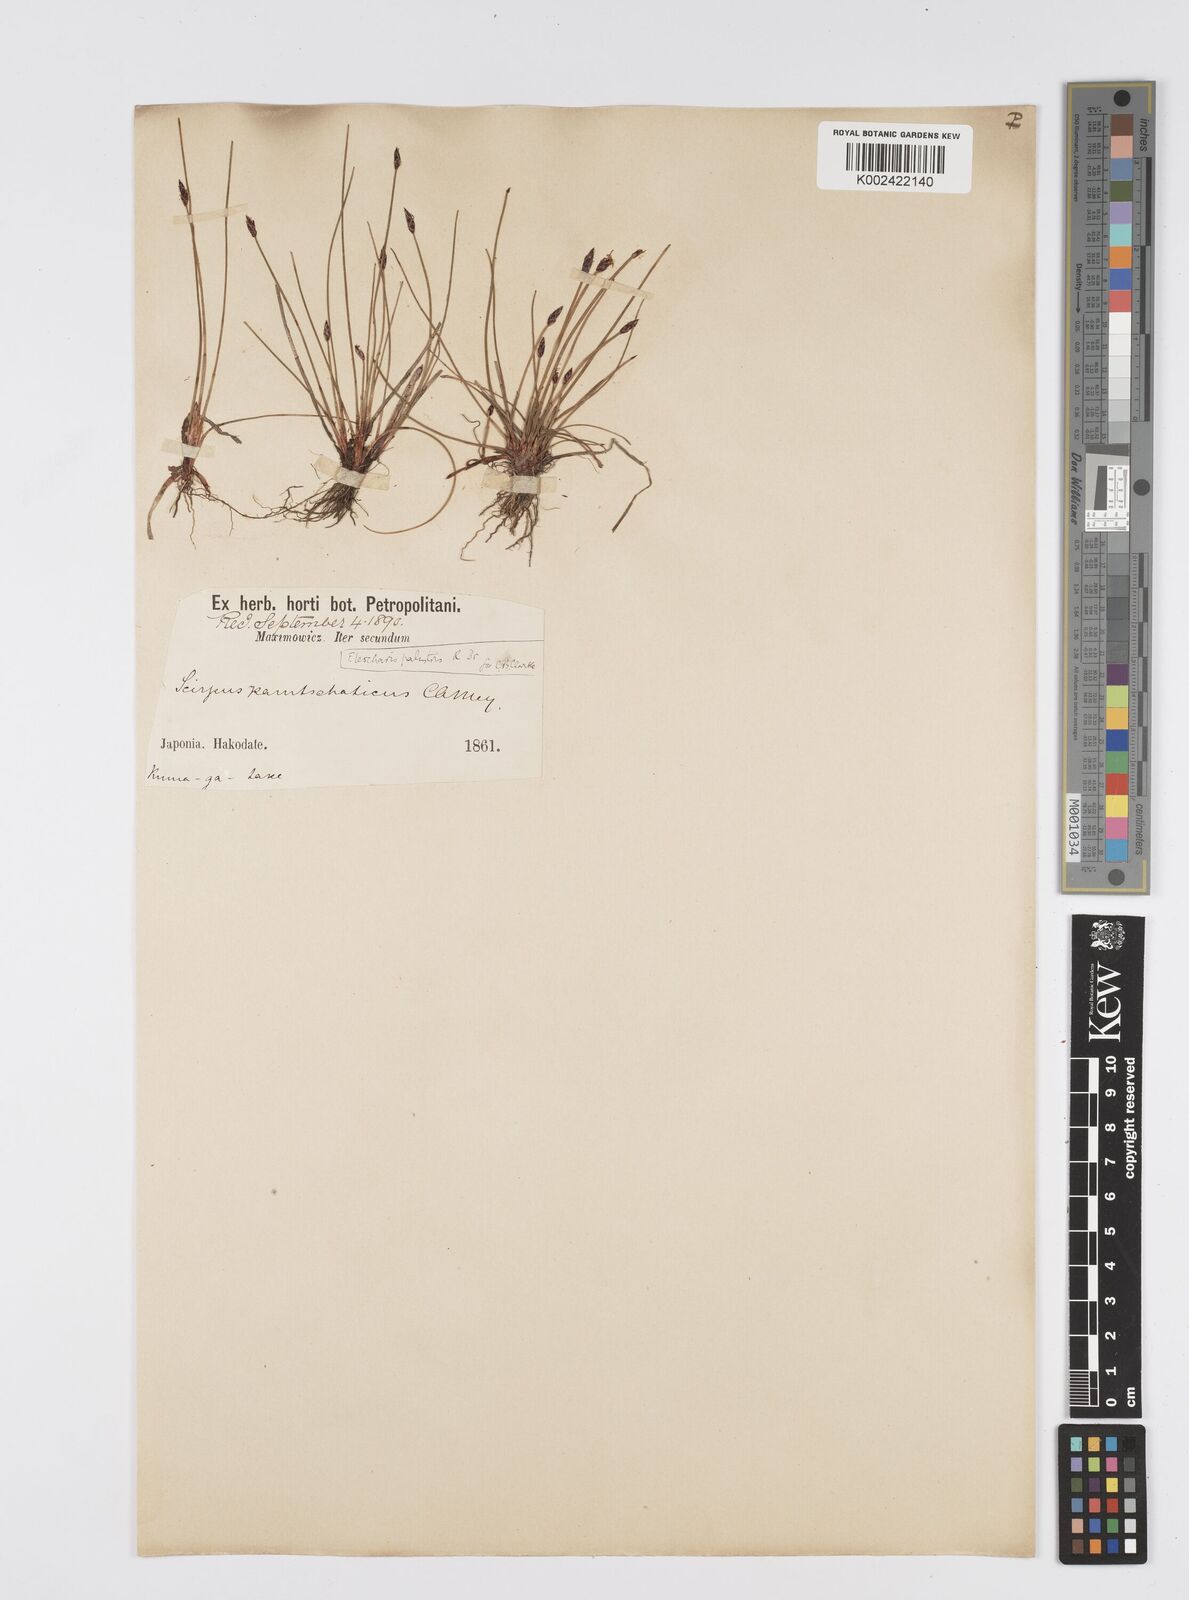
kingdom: Plantae
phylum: Tracheophyta
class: Liliopsida
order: Poales
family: Cyperaceae
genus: Eleocharis
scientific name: Eleocharis kamtschatica
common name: Kamchatka spikerush
